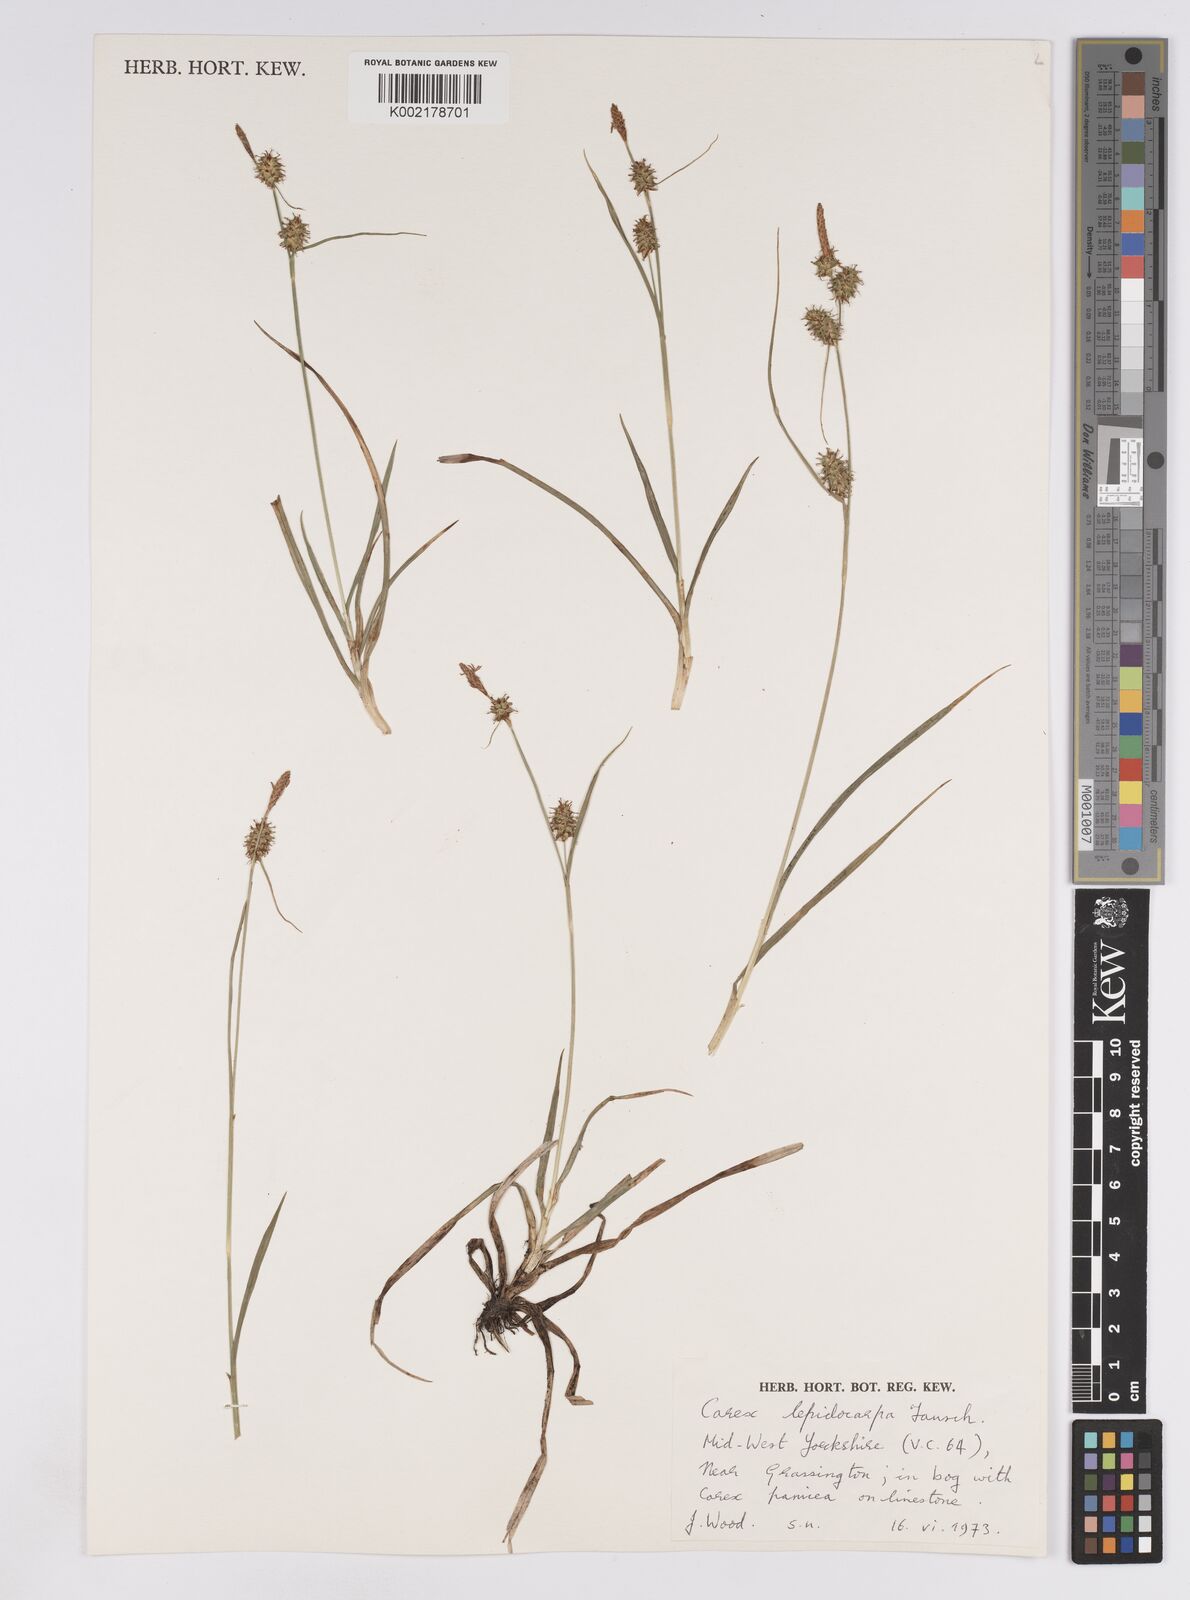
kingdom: Plantae
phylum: Tracheophyta
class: Liliopsida
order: Poales
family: Cyperaceae
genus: Carex
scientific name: Carex lepidocarpa
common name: Long-stalked yellow-sedge
